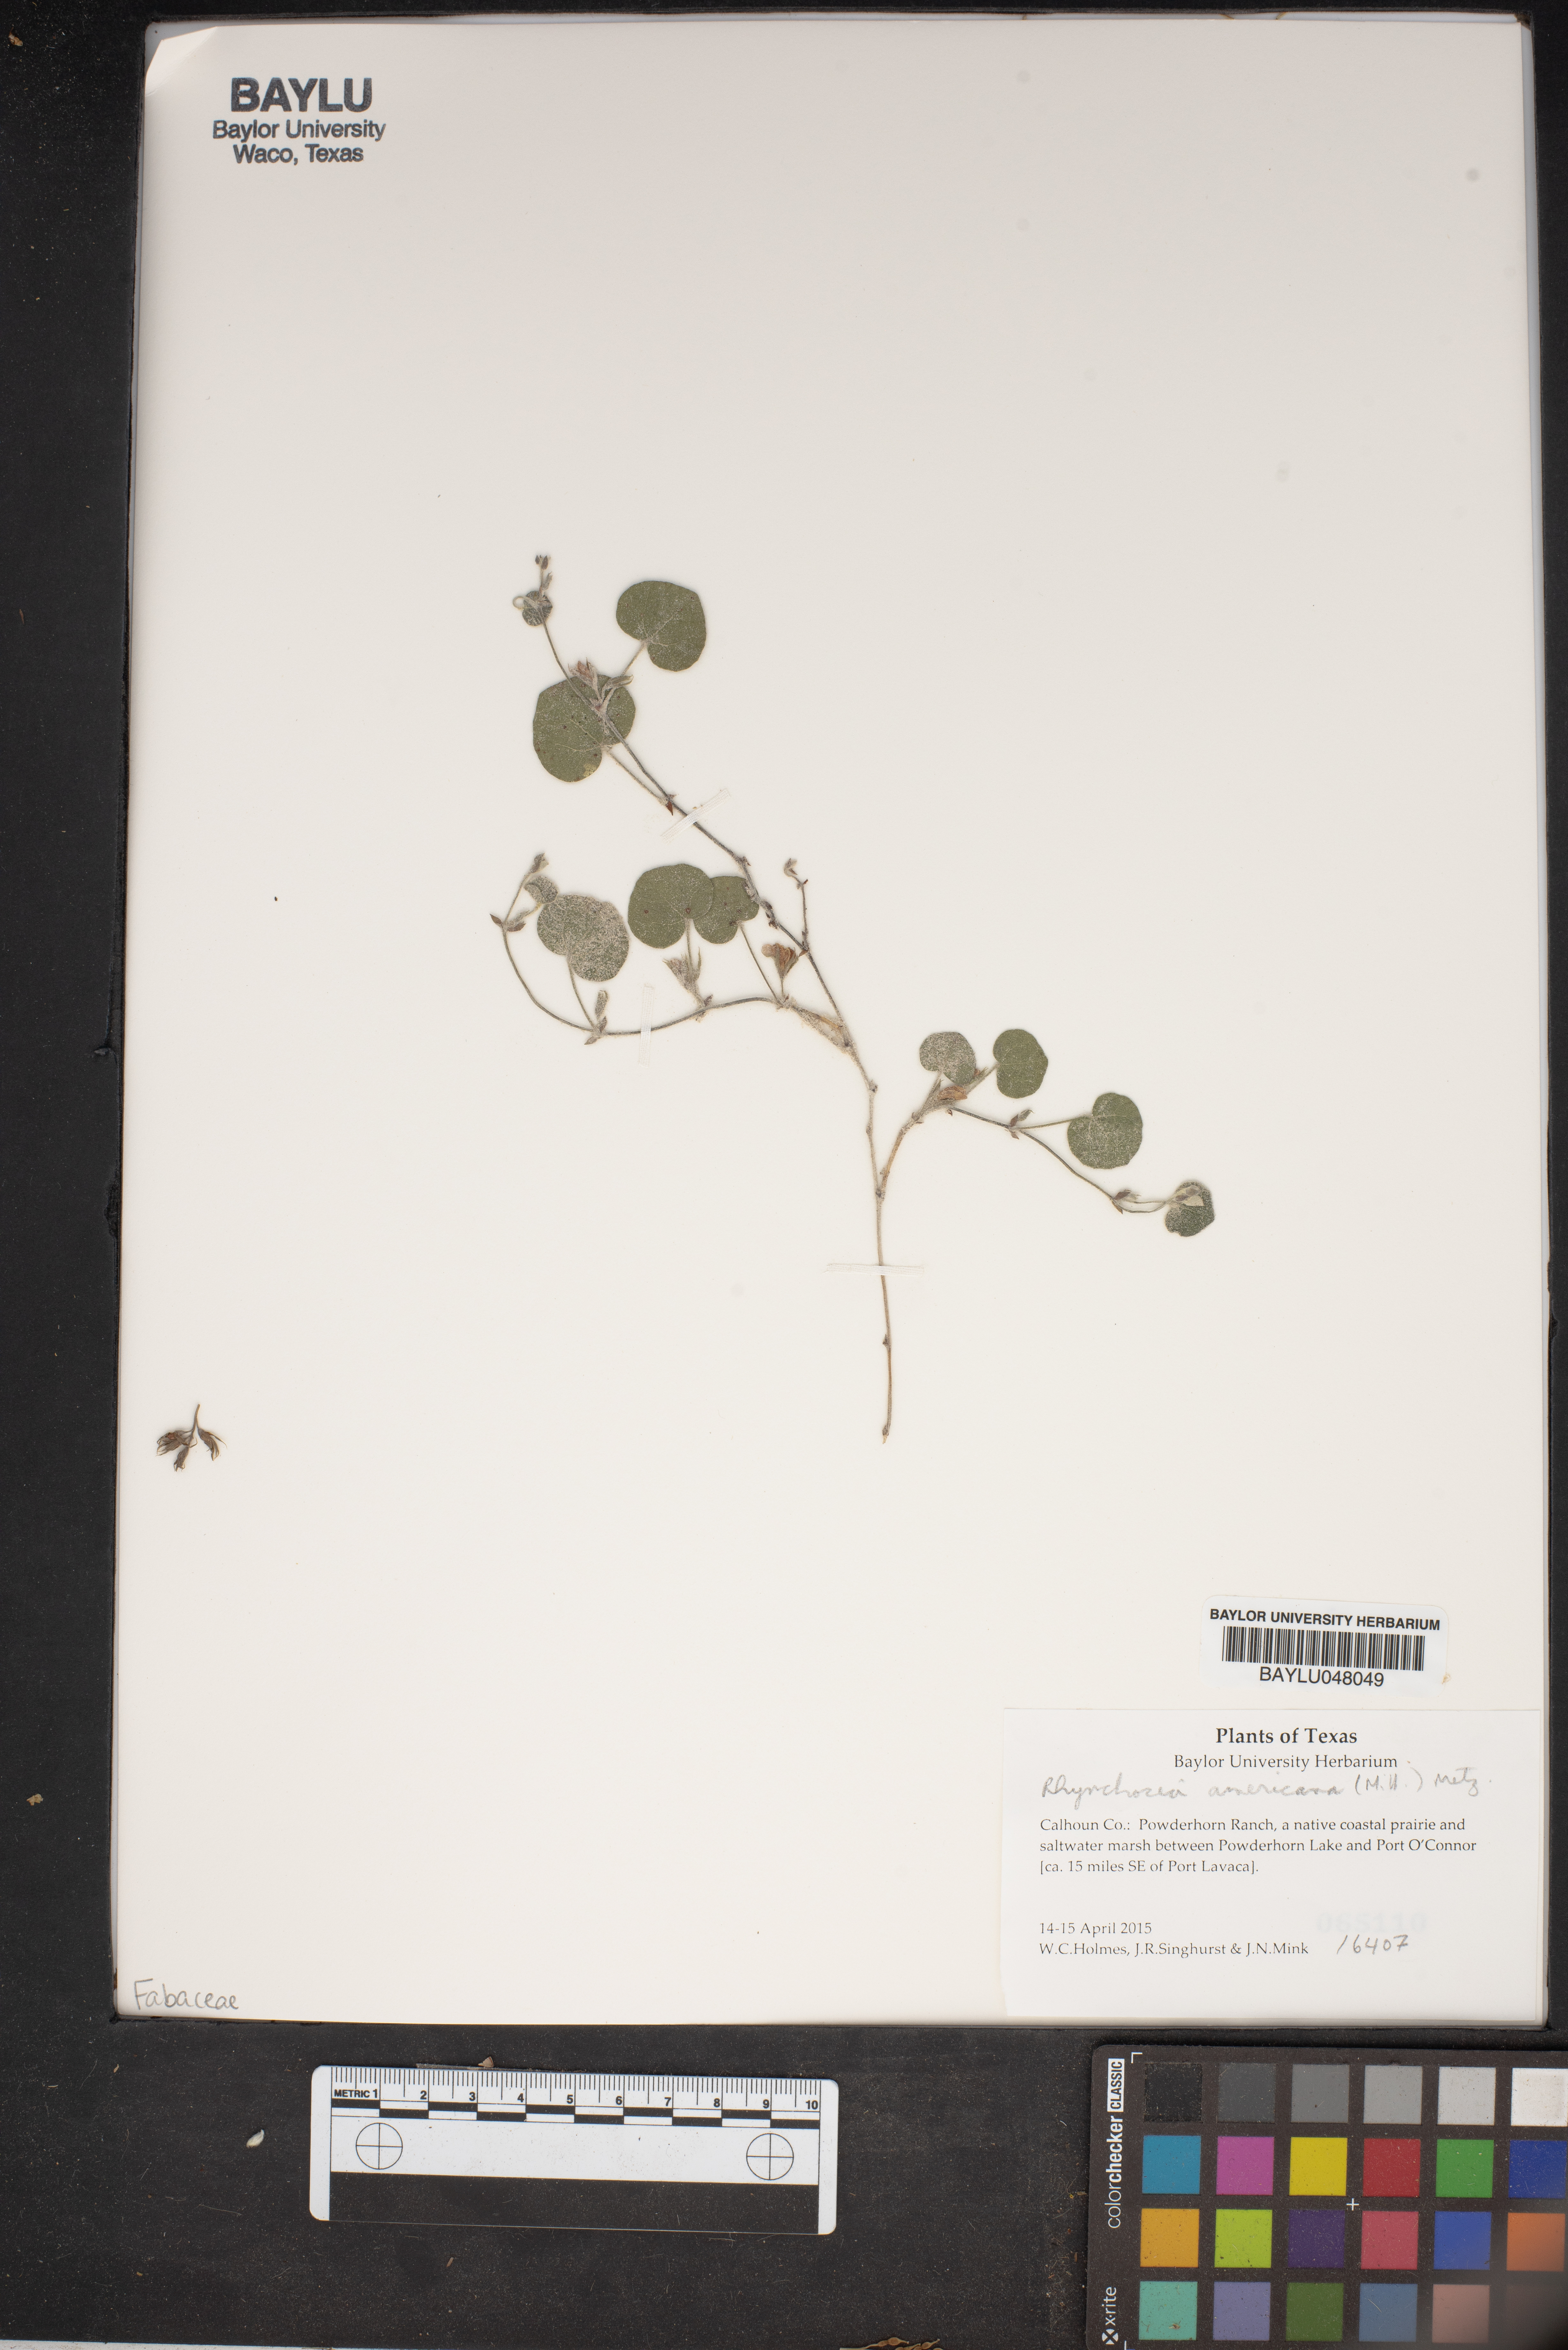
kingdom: Plantae
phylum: Tracheophyta
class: Magnoliopsida
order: Fabales
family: Fabaceae
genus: Rhynchosia
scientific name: Rhynchosia americana
